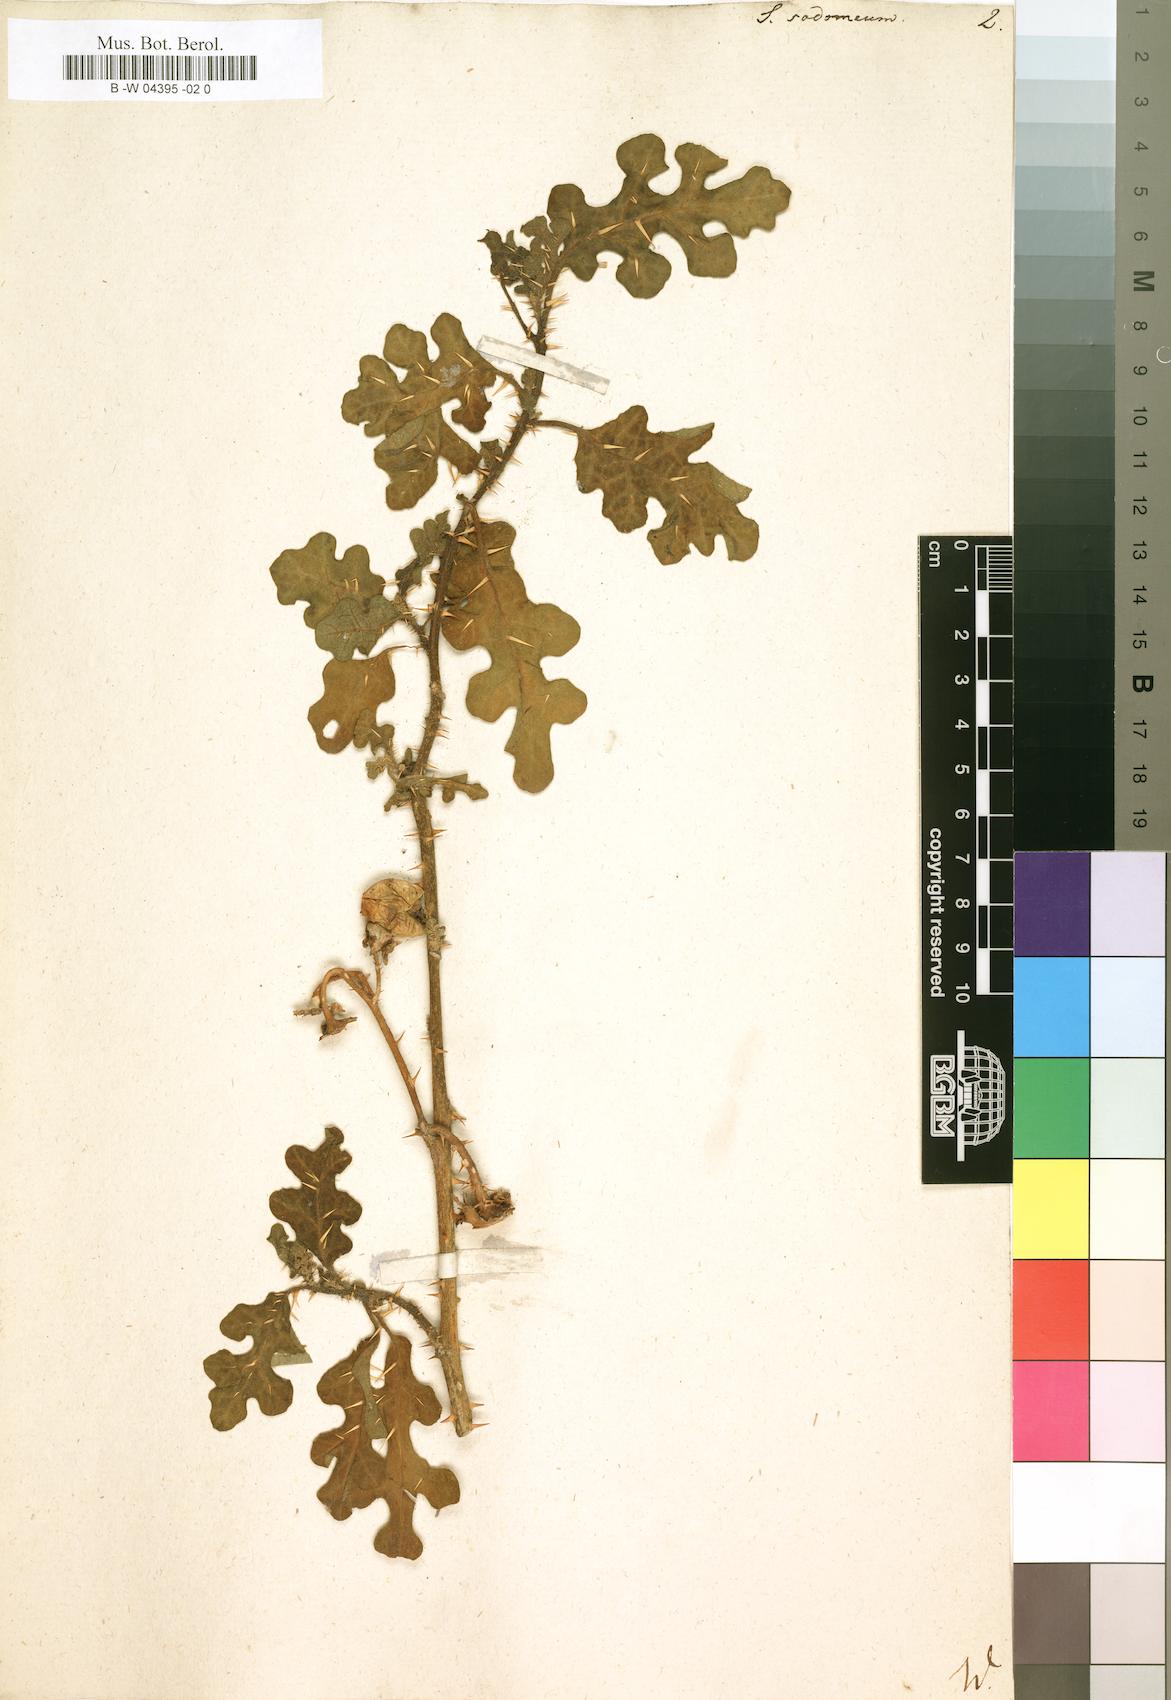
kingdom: Plantae
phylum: Tracheophyta
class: Magnoliopsida
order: Solanales
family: Solanaceae
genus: Solanum
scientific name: Solanum
